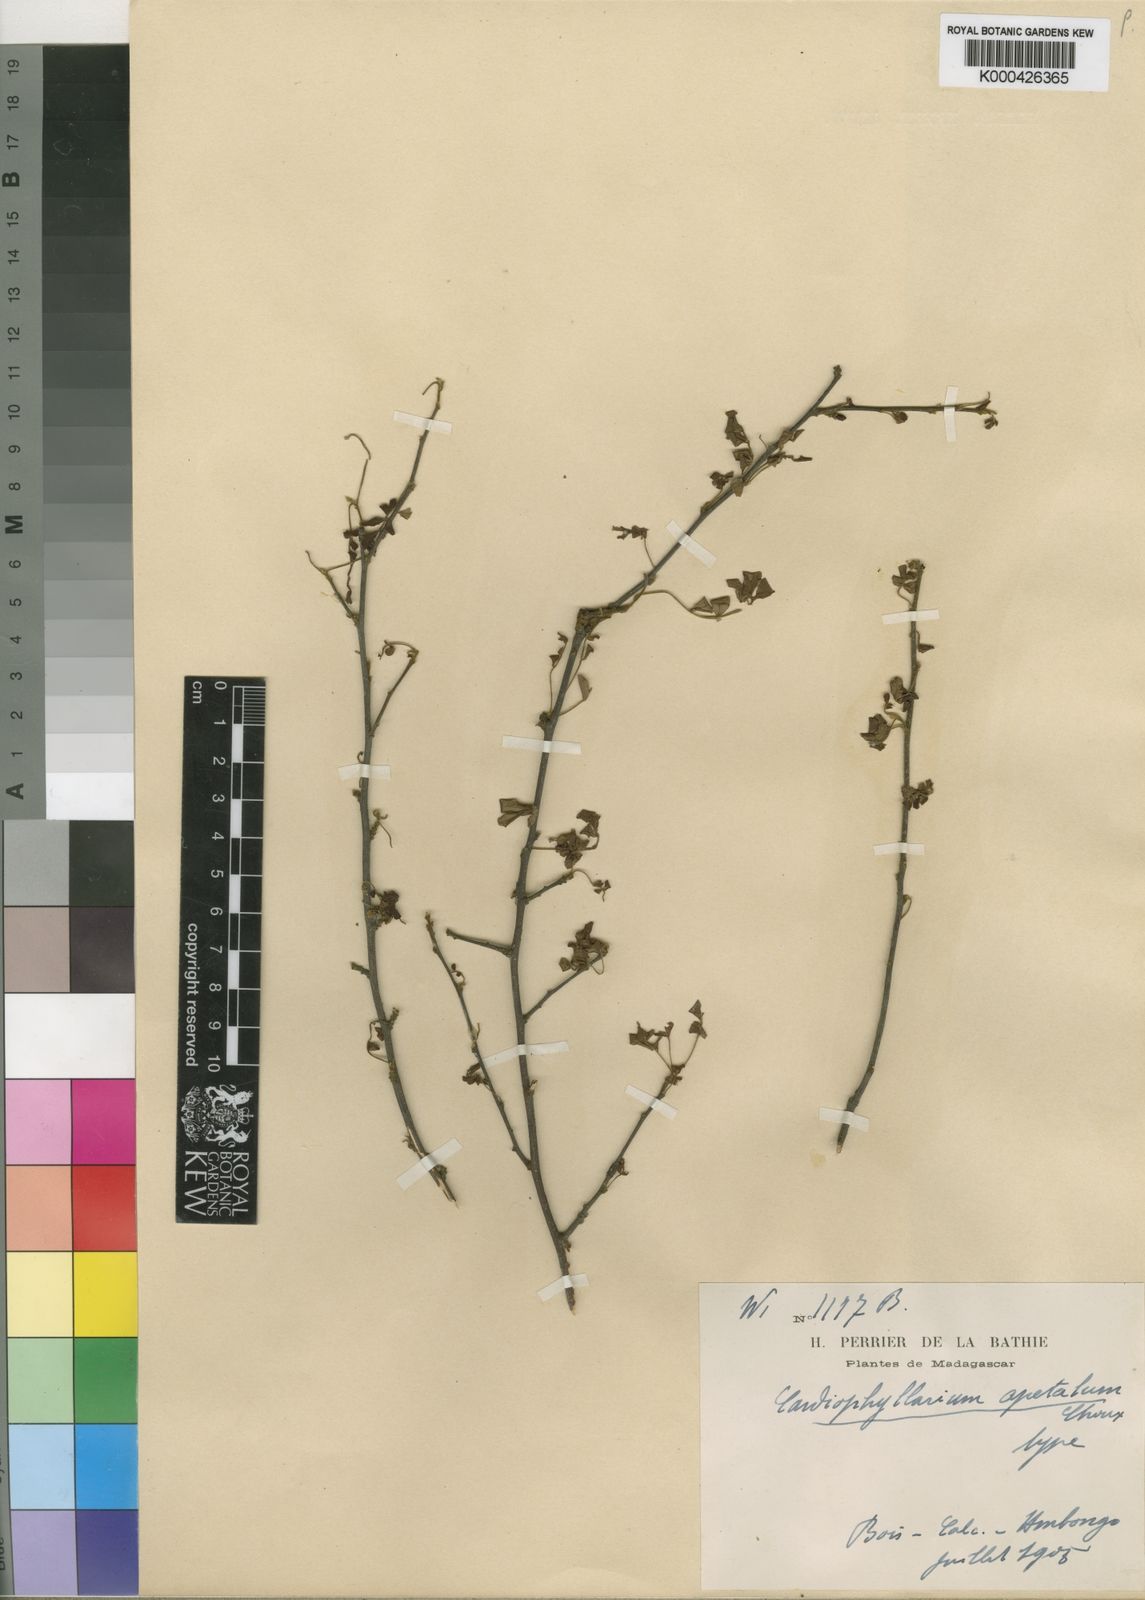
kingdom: Plantae
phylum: Tracheophyta
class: Magnoliopsida
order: Sapindales
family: Sapindaceae
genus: Doratoxylon
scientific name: Doratoxylon apetalum
